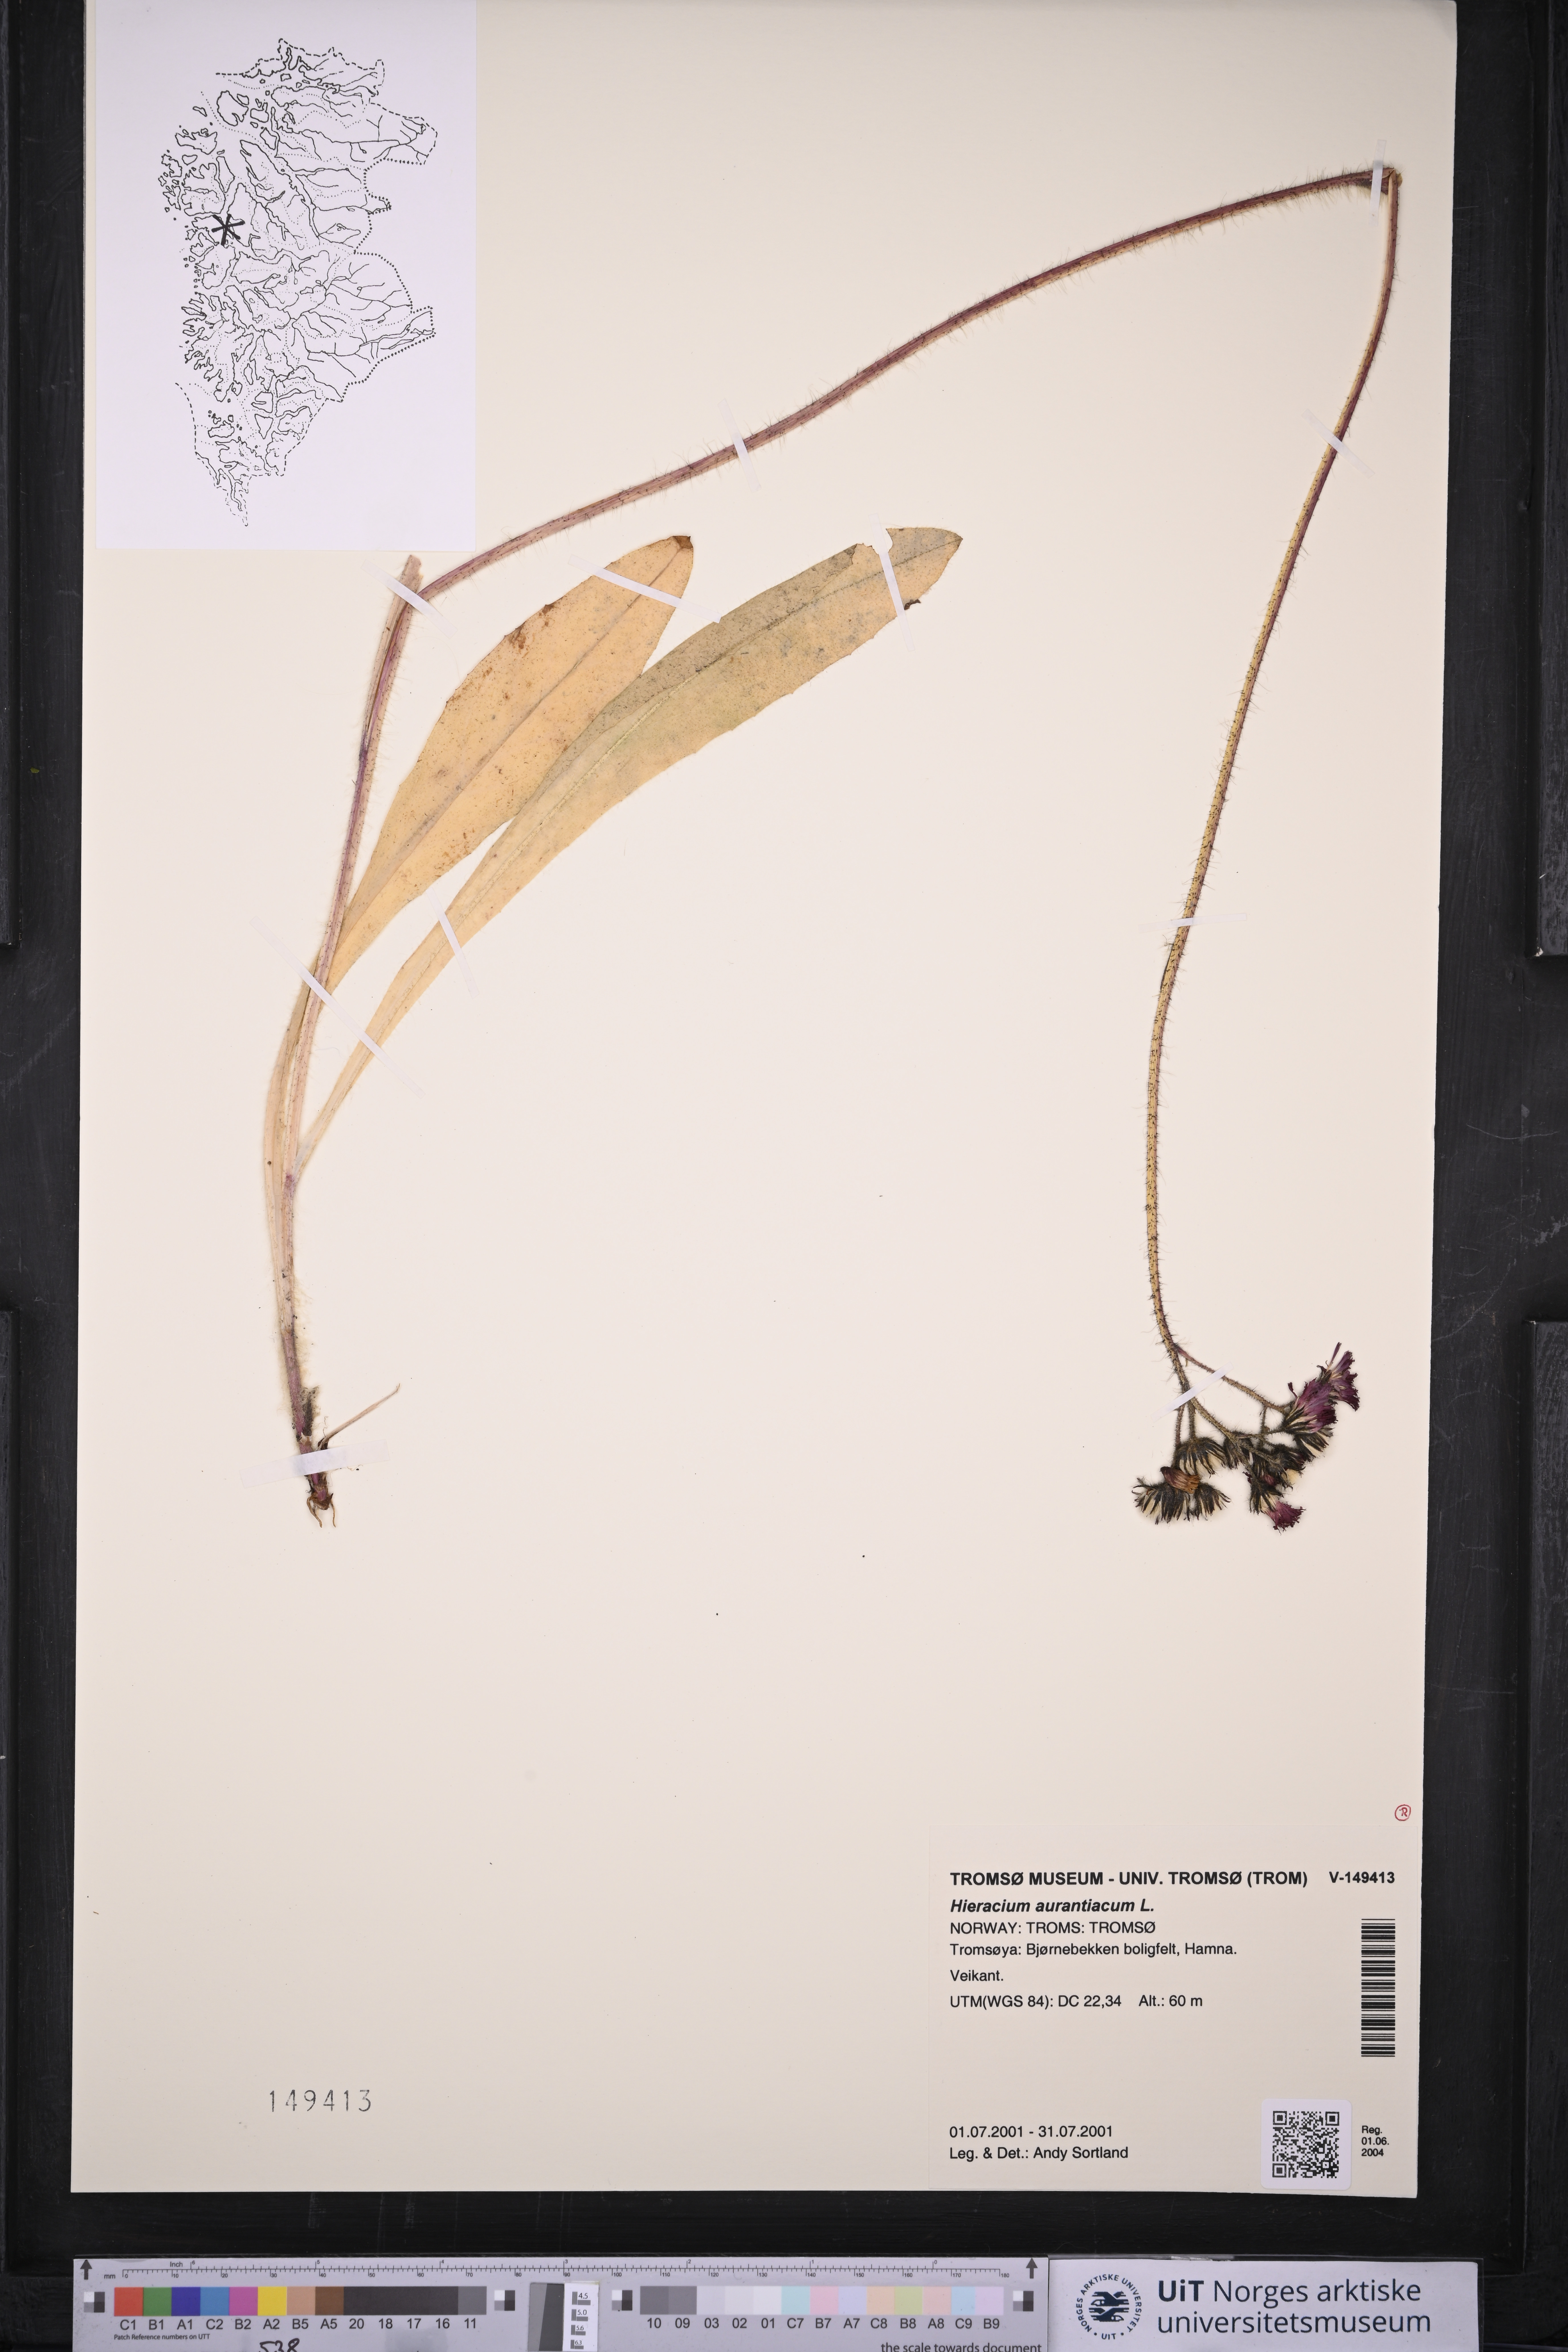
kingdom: Plantae
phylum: Tracheophyta
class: Magnoliopsida
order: Asterales
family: Asteraceae
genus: Pilosella
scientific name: Pilosella aurantiaca
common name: Fox-and-cubs
